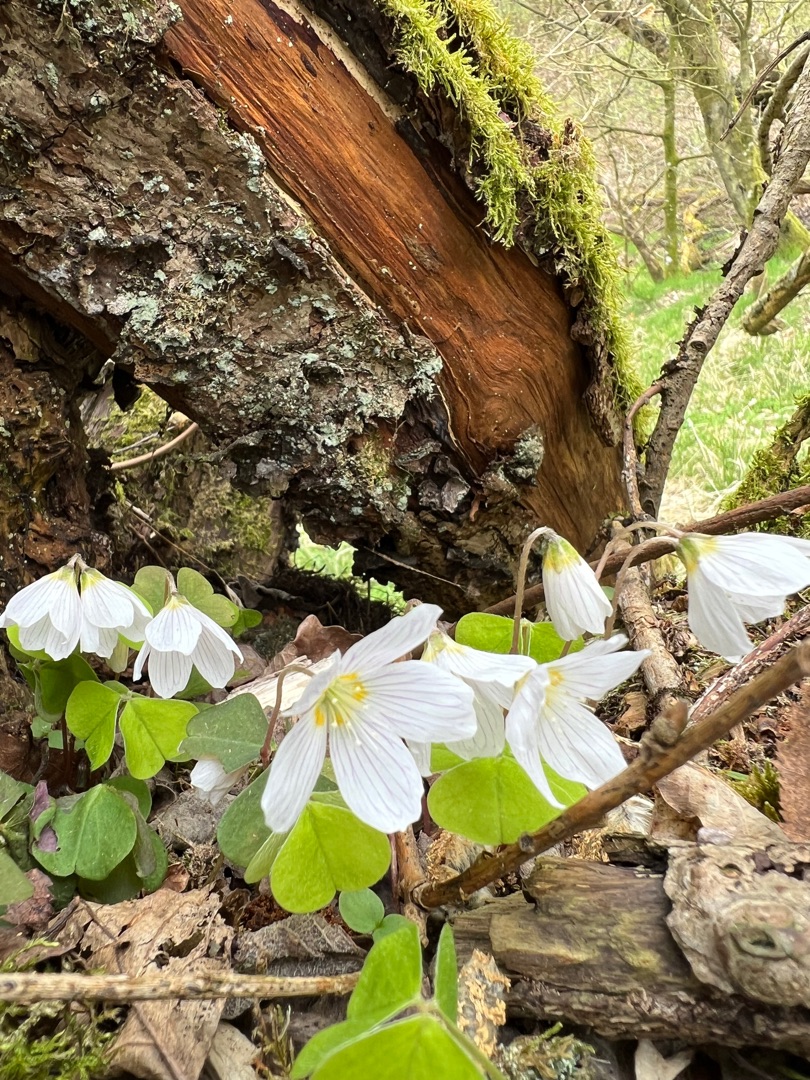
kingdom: Plantae
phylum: Tracheophyta
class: Magnoliopsida
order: Oxalidales
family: Oxalidaceae
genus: Oxalis
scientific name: Oxalis acetosella
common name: Skovsyre
